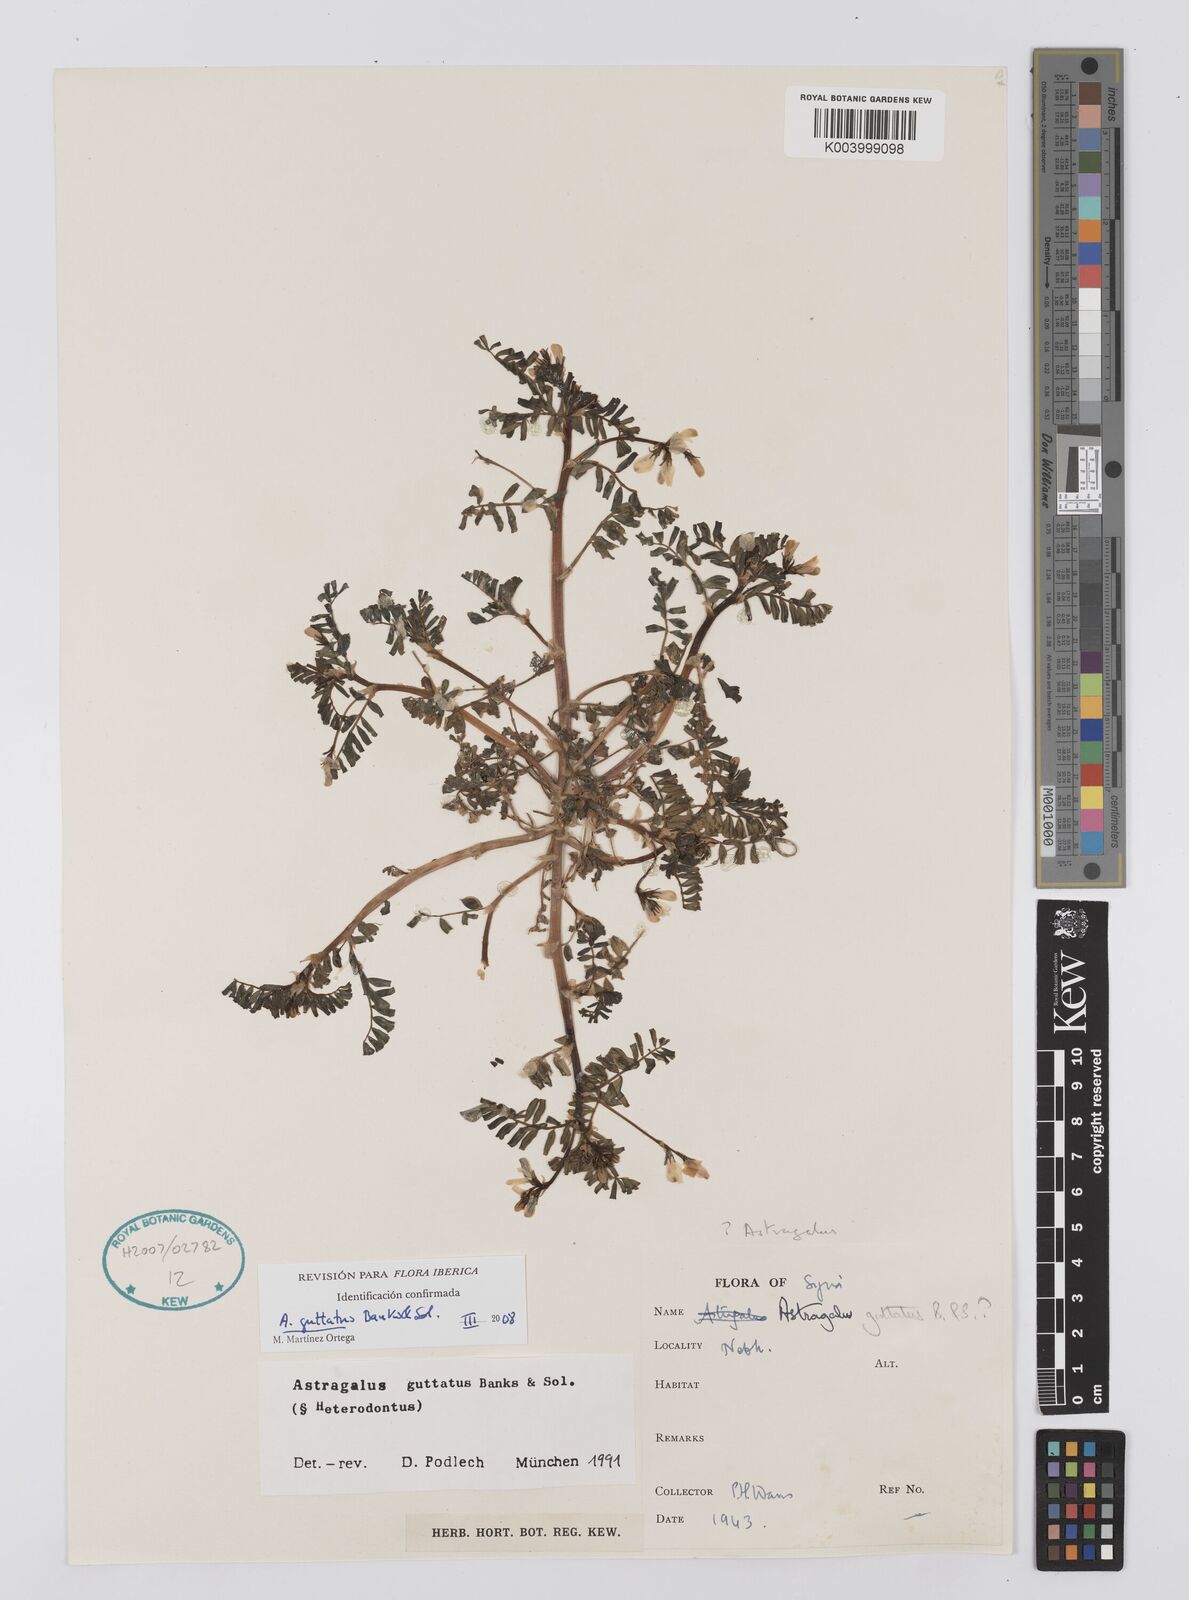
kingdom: Plantae
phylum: Tracheophyta
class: Magnoliopsida
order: Fabales
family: Fabaceae
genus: Astragalus
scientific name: Astragalus guttatus
